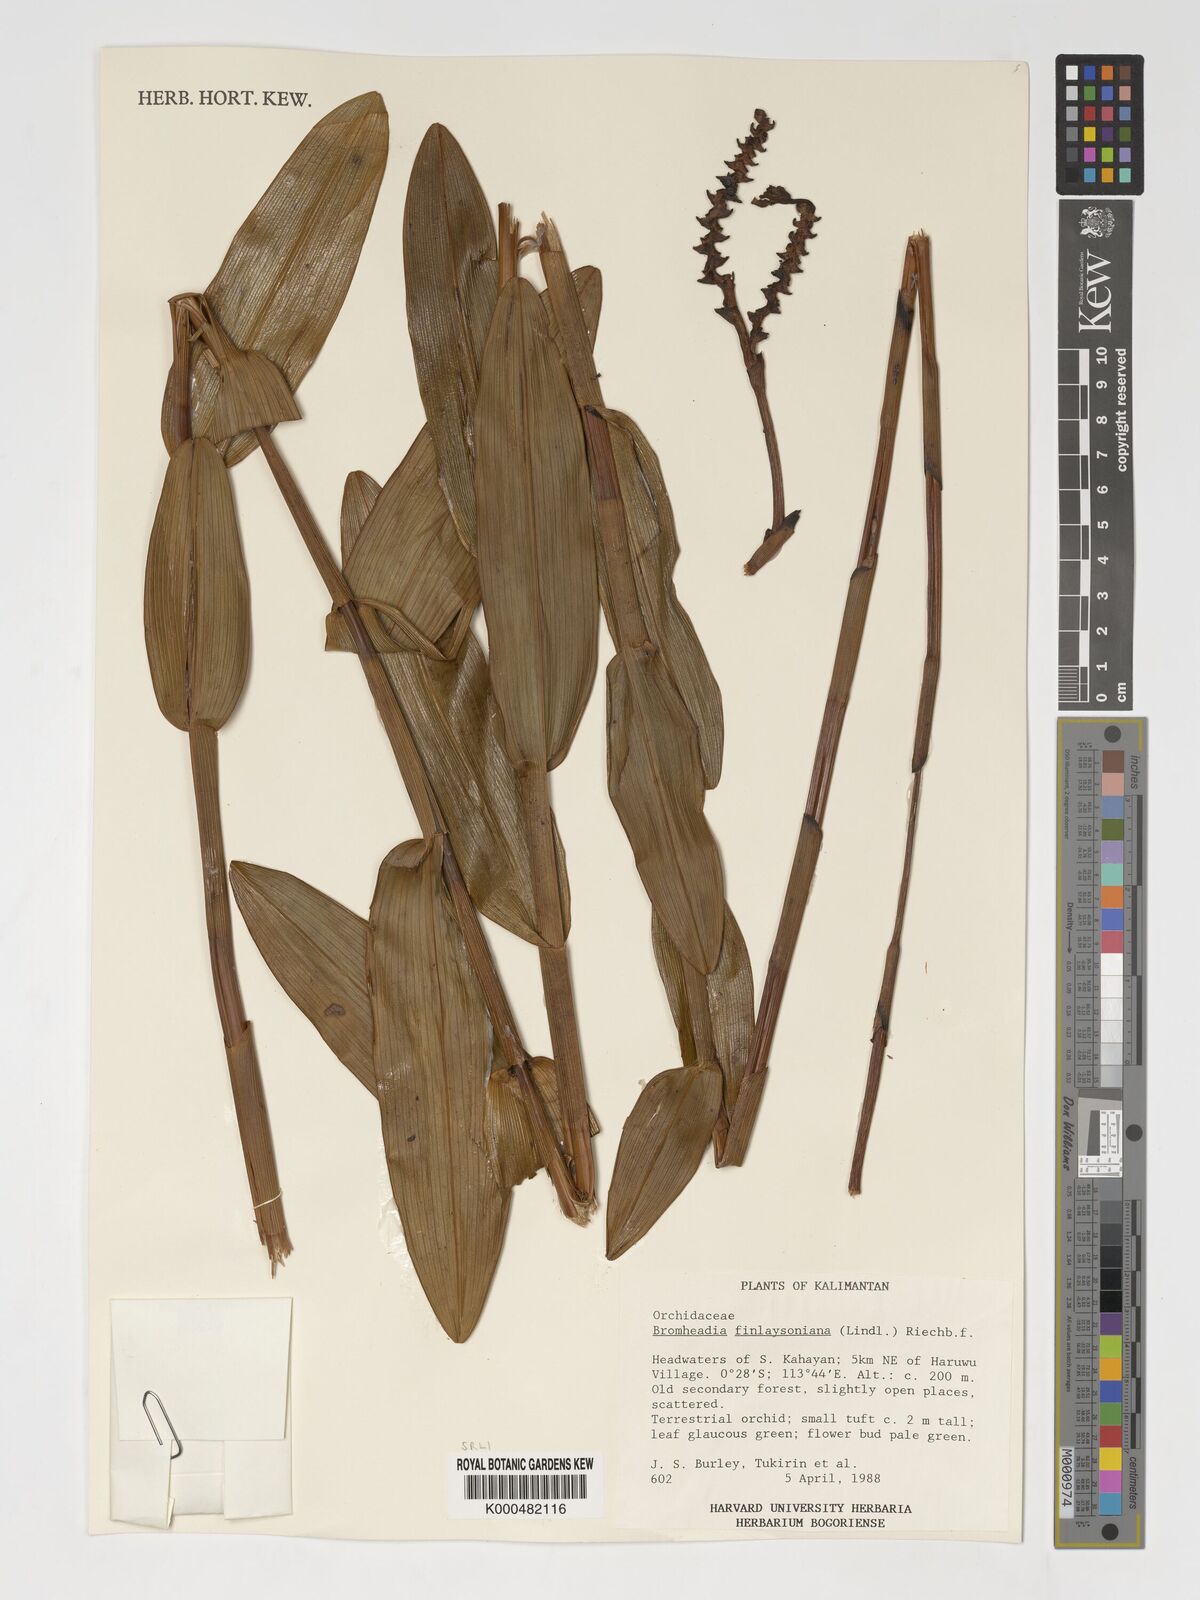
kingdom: Plantae
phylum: Tracheophyta
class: Liliopsida
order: Asparagales
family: Orchidaceae
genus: Bromheadia
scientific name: Bromheadia finlaysoniana
